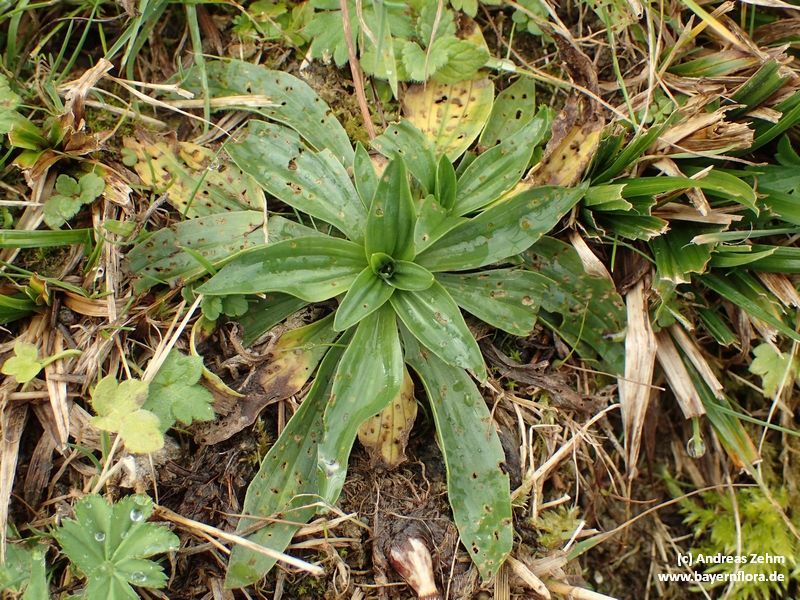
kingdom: Plantae
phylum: Tracheophyta
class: Magnoliopsida
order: Lamiales
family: Plantaginaceae
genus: Plantago
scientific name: Plantago atrata
